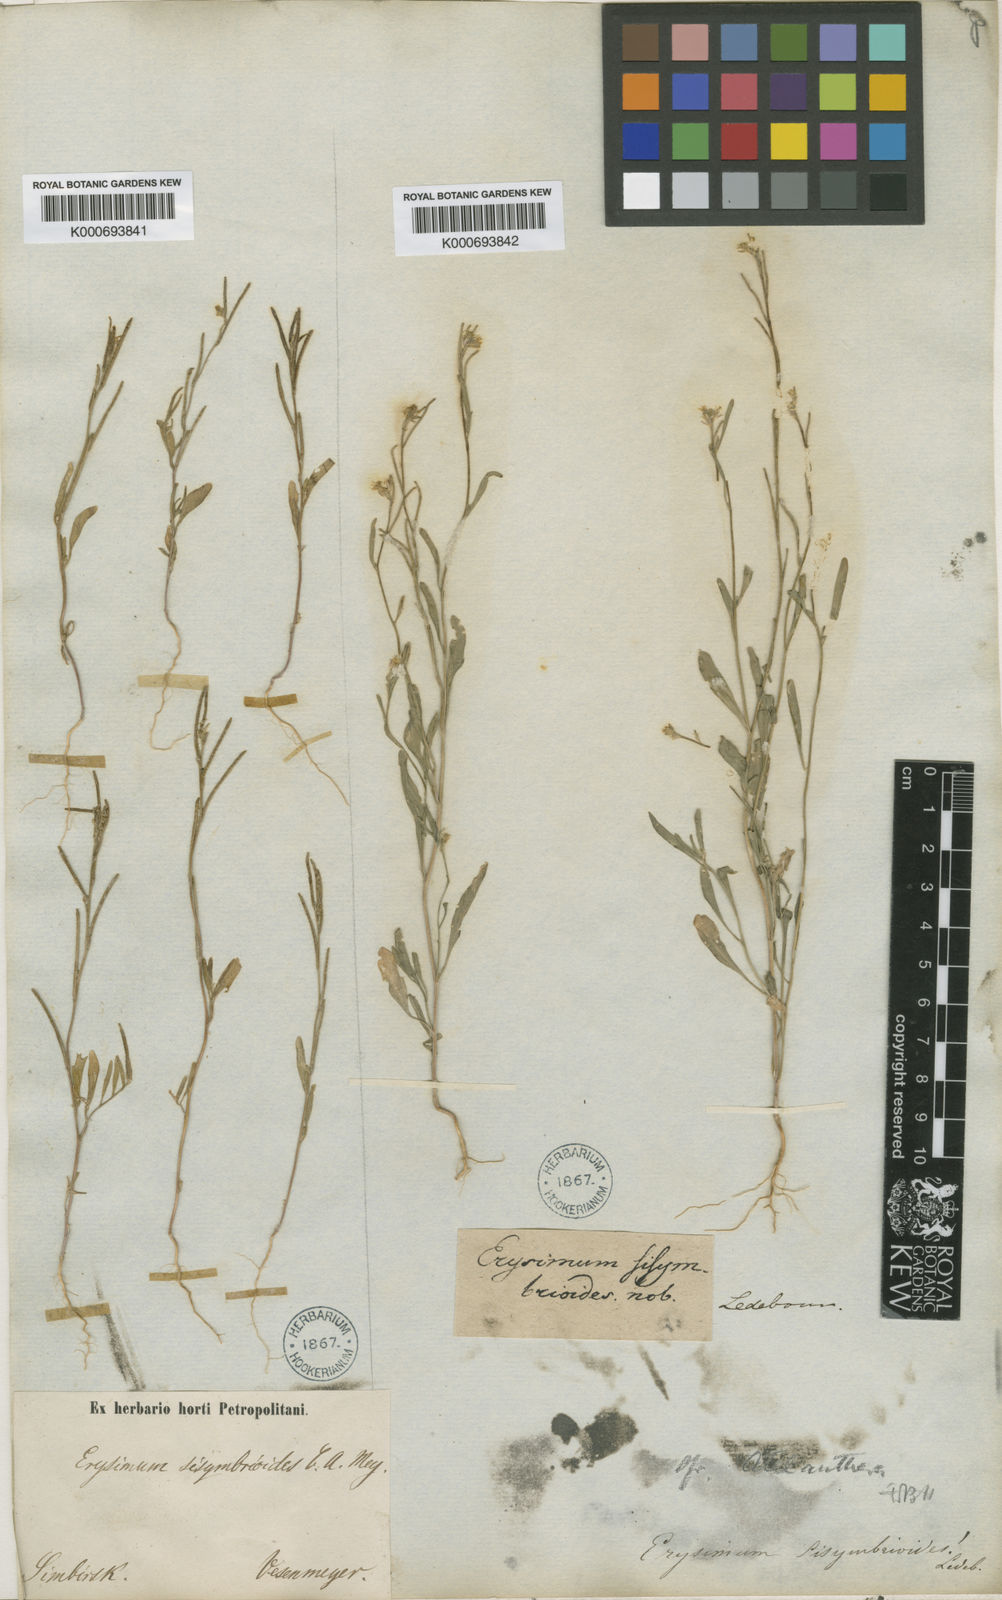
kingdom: Plantae
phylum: Tracheophyta
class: Magnoliopsida
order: Brassicales
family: Brassicaceae
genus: Erysimum
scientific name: Erysimum sisymbrioides
